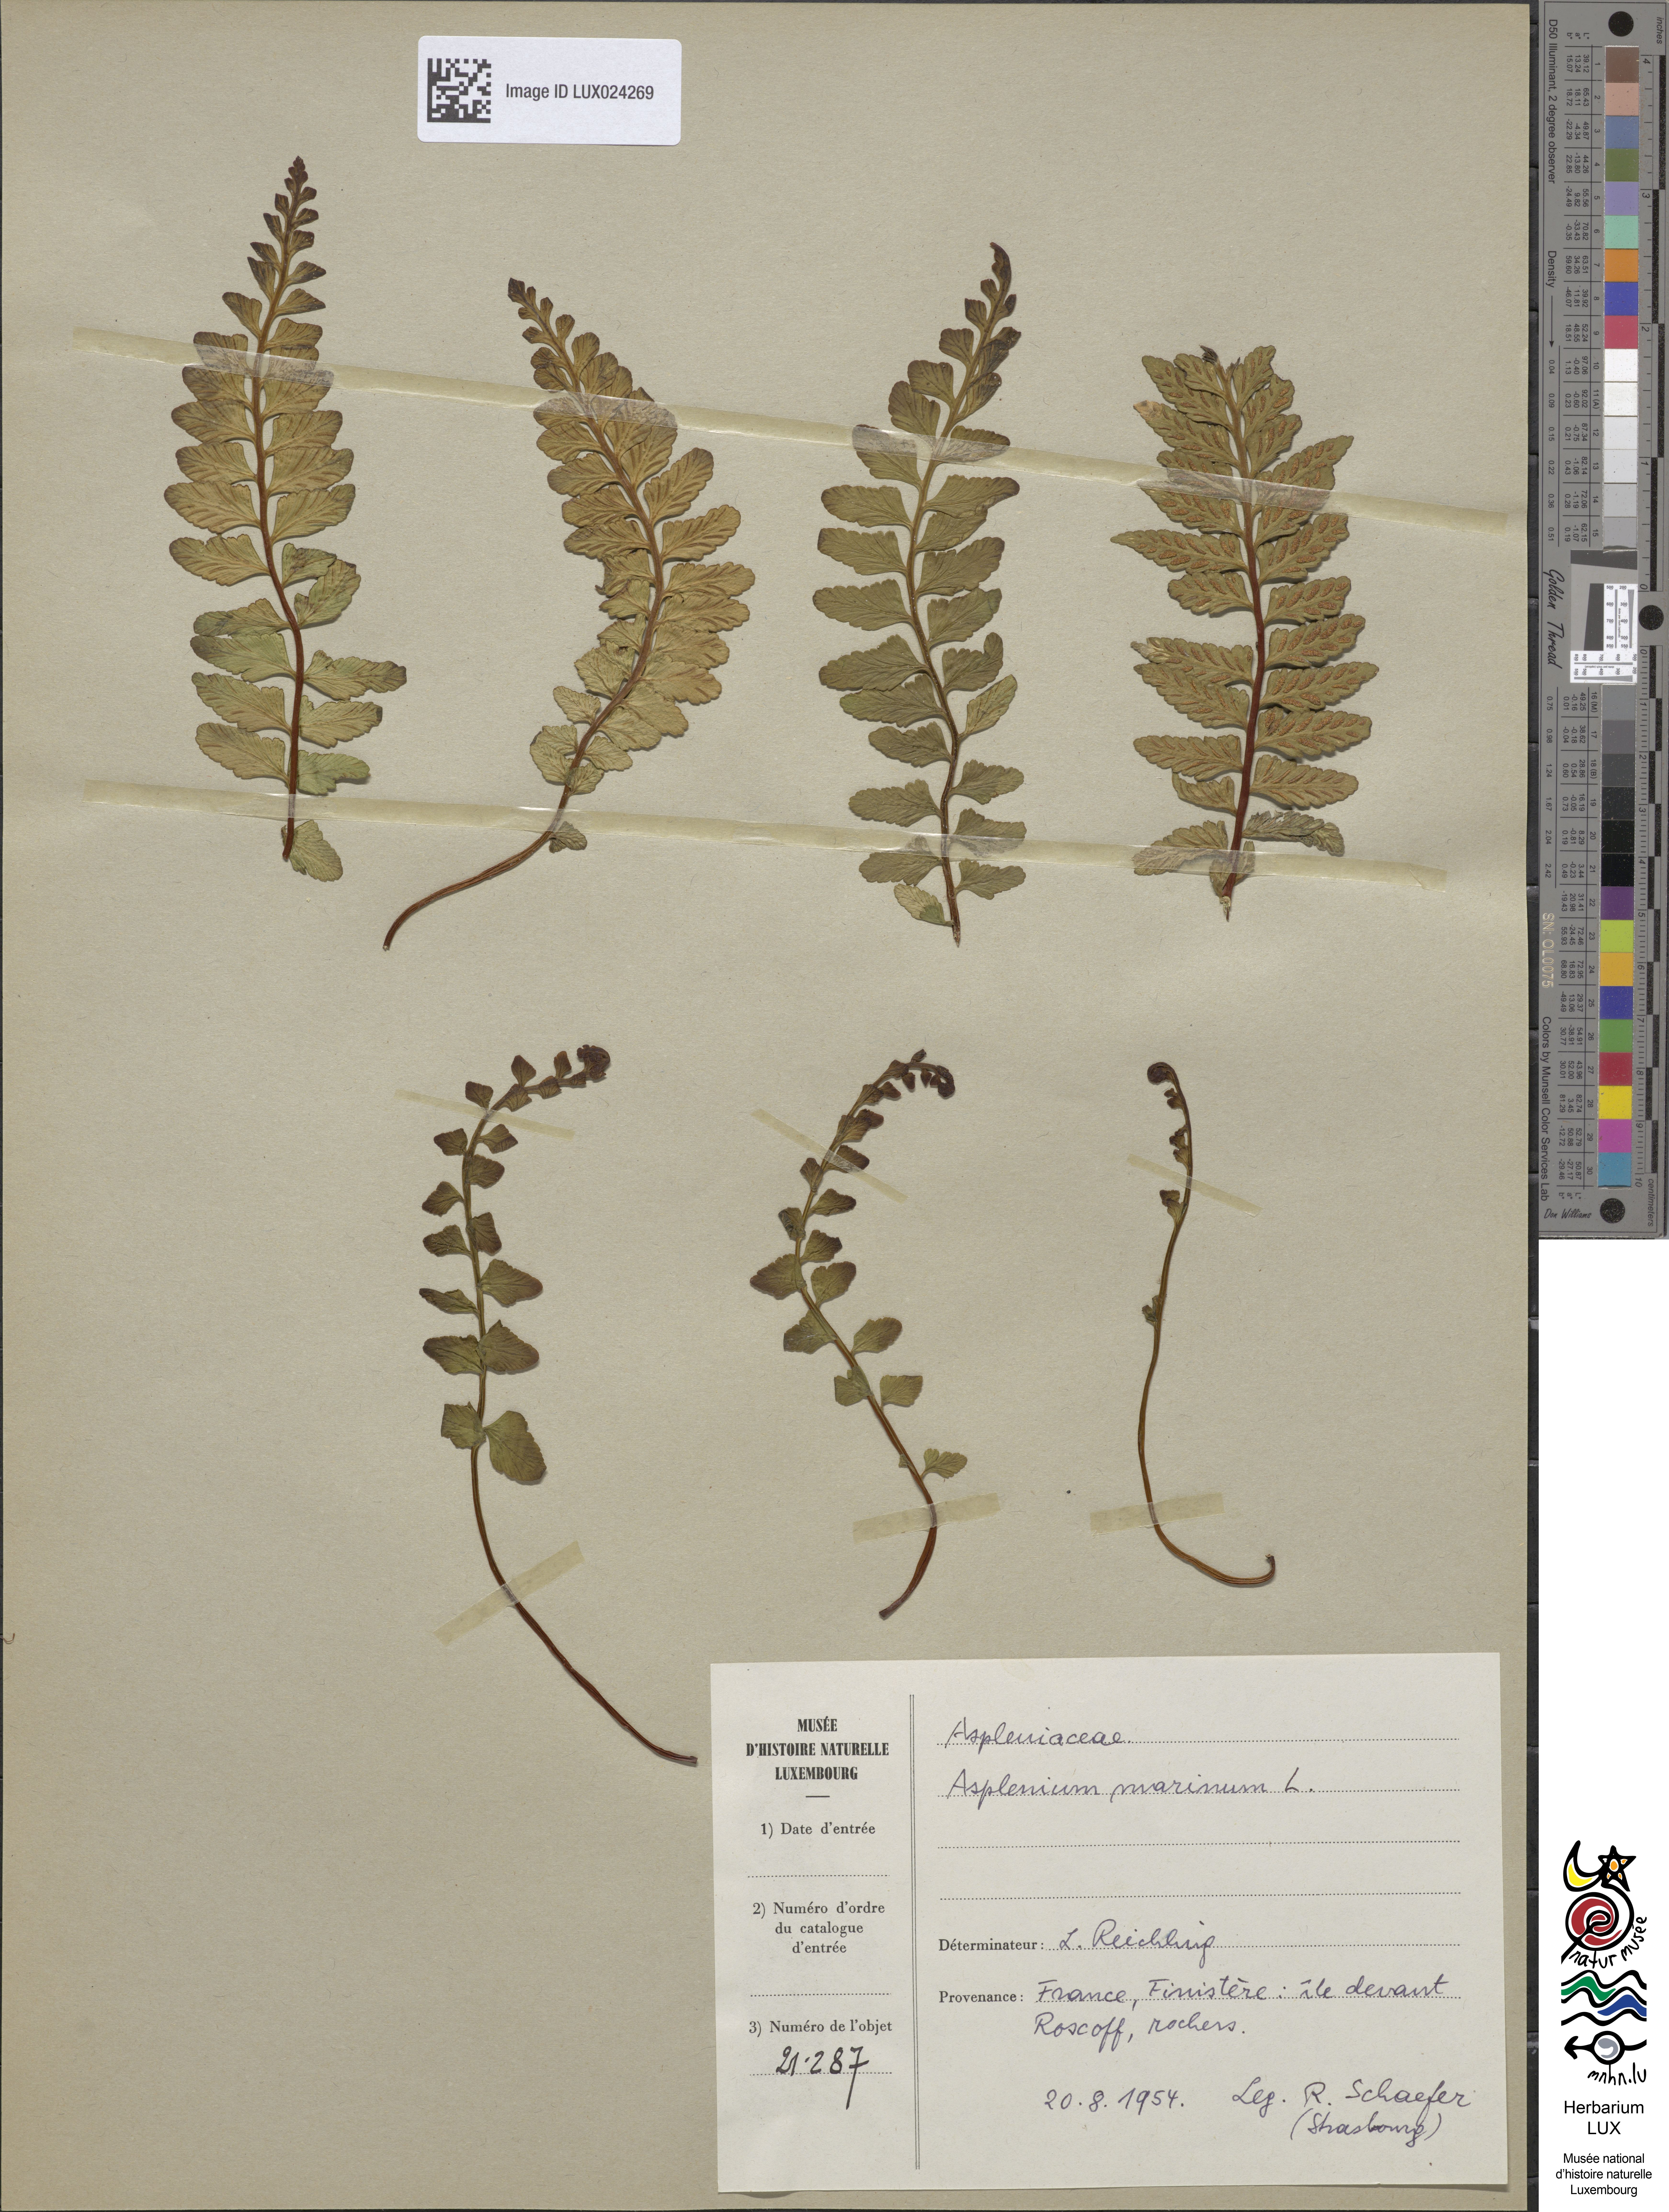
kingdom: Plantae
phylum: Tracheophyta
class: Polypodiopsida
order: Polypodiales
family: Aspleniaceae
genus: Asplenium
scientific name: Asplenium marinum
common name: Sea spleenwort
